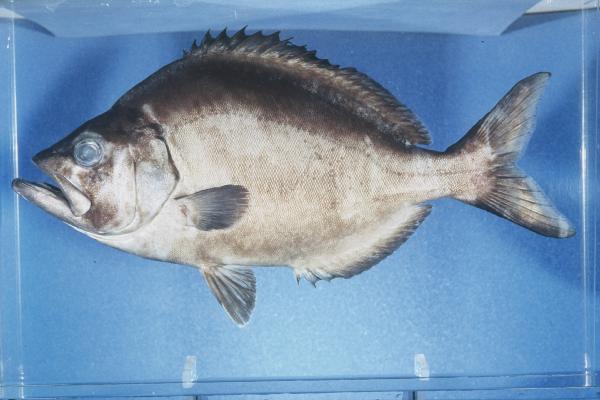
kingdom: Animalia
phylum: Chordata
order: Perciformes
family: Parascorpididae
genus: Parascorpis
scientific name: Parascorpis typus
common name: Jutjaw
